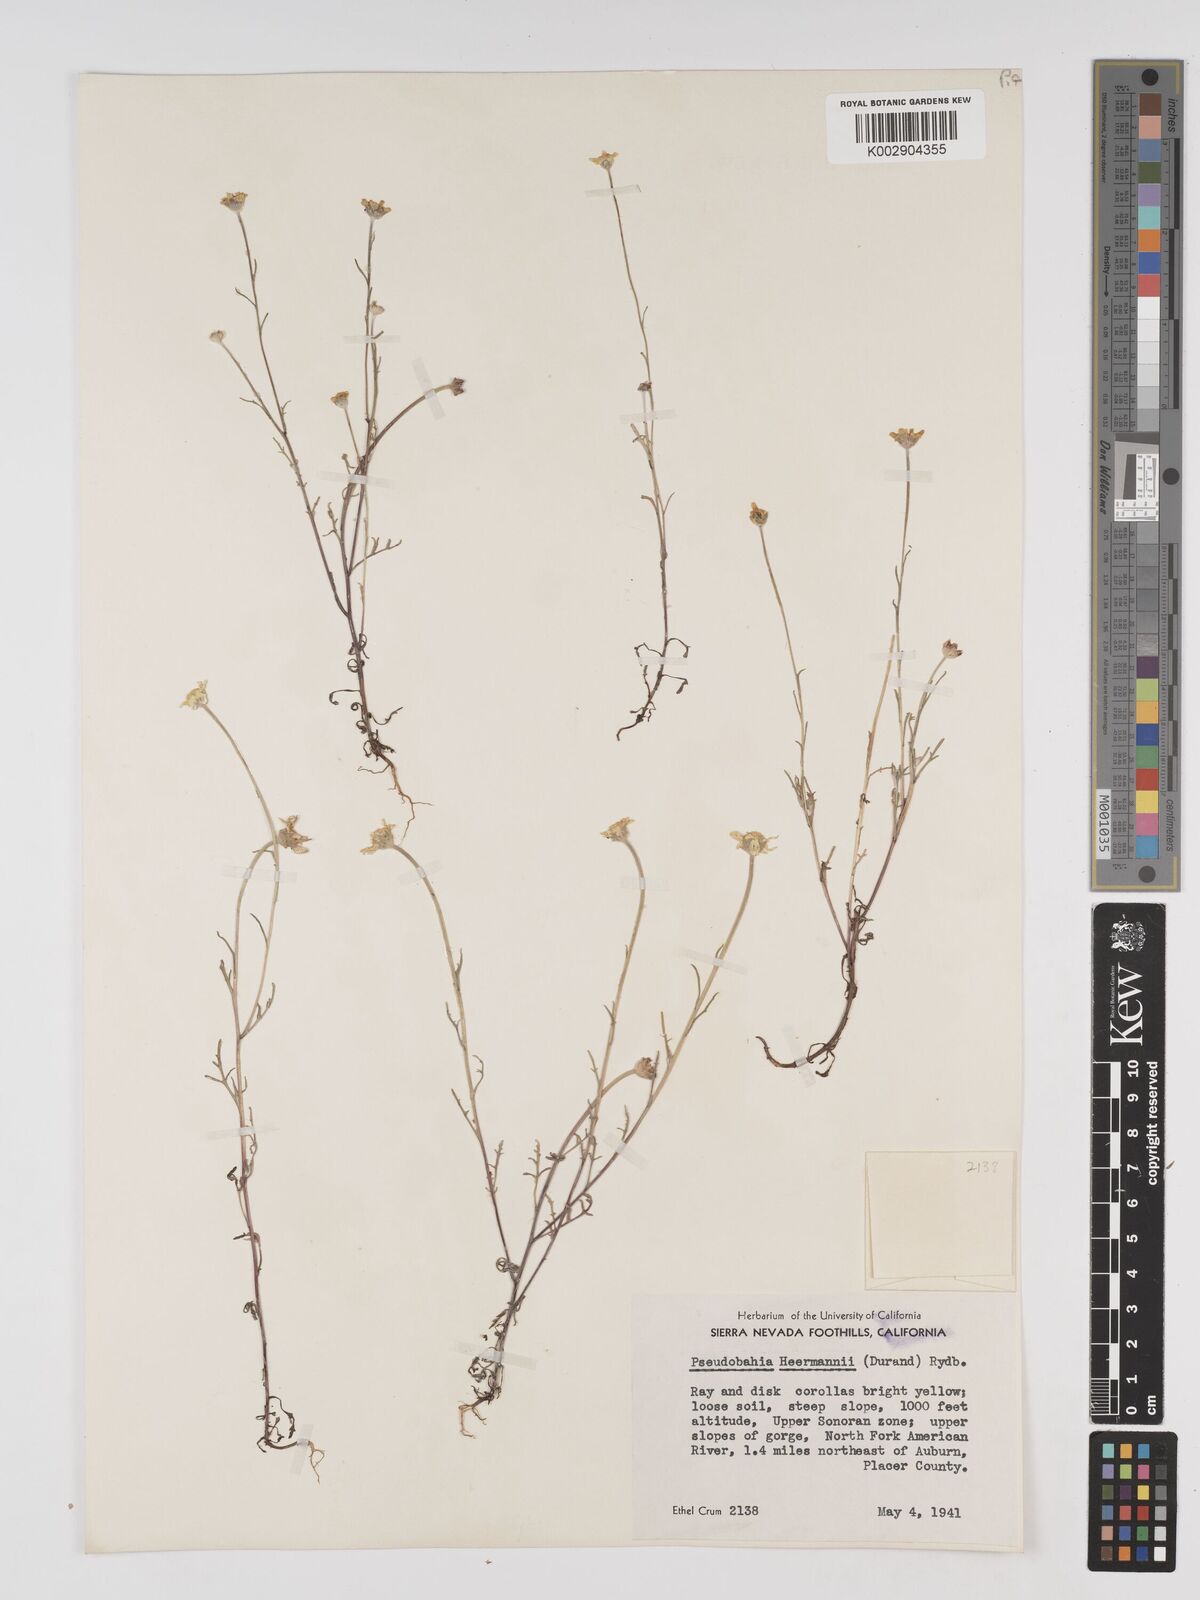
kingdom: Plantae
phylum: Tracheophyta
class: Magnoliopsida
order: Asterales
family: Asteraceae
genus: Eriophyllum
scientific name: Eriophyllum jepsonii
